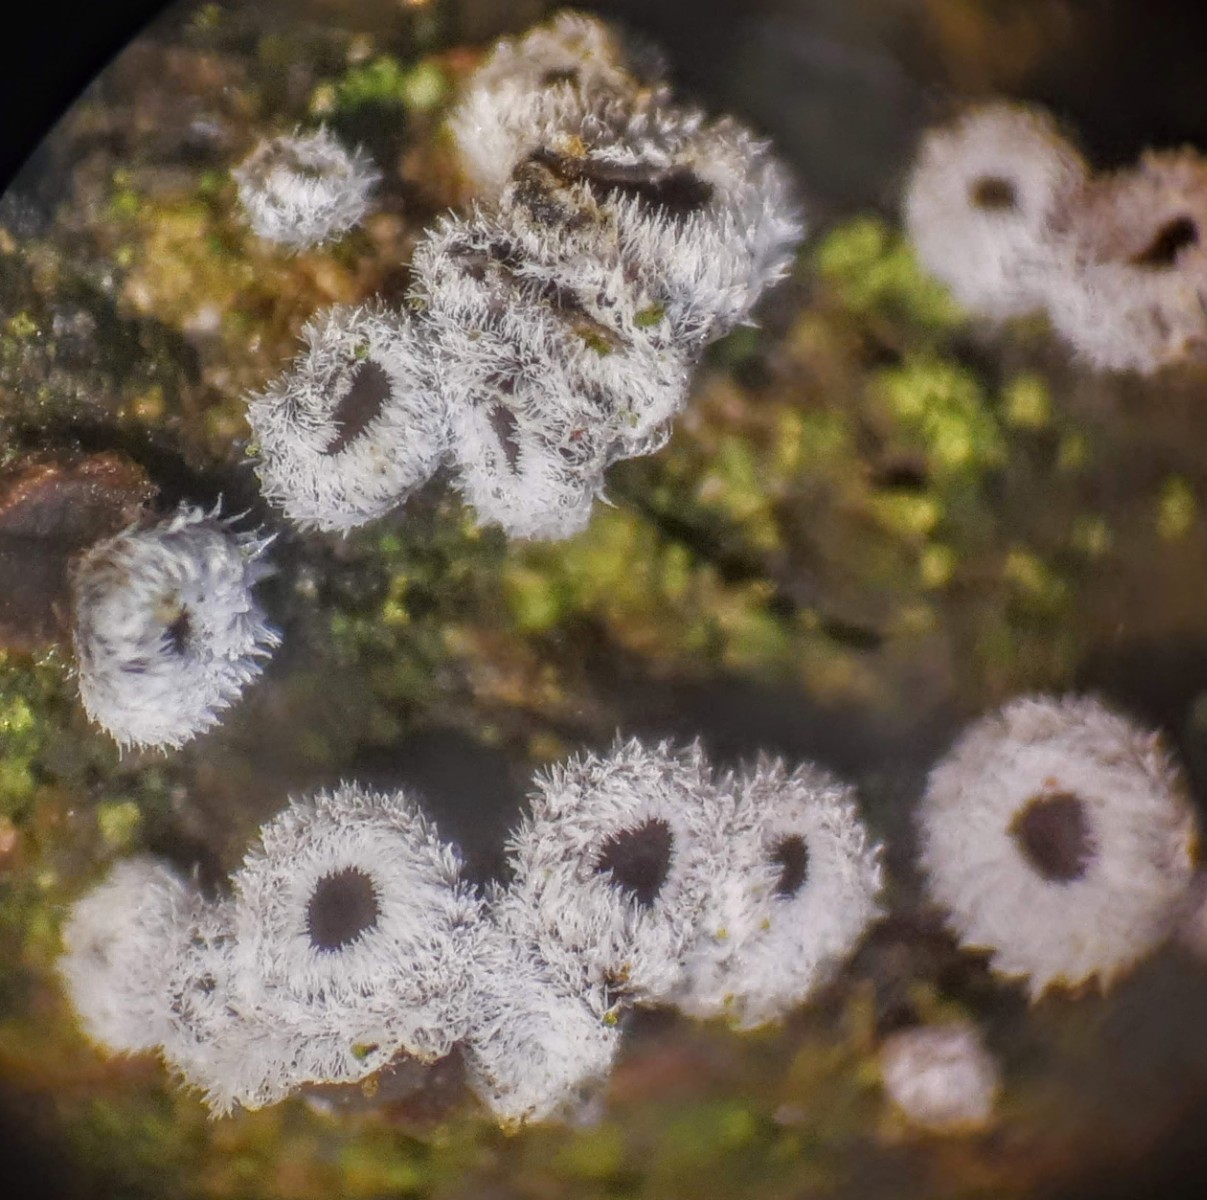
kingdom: Fungi
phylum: Basidiomycota
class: Agaricomycetes
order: Agaricales
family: Niaceae
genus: Lachnella
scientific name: Lachnella alboviolascens
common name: grå frynserede
